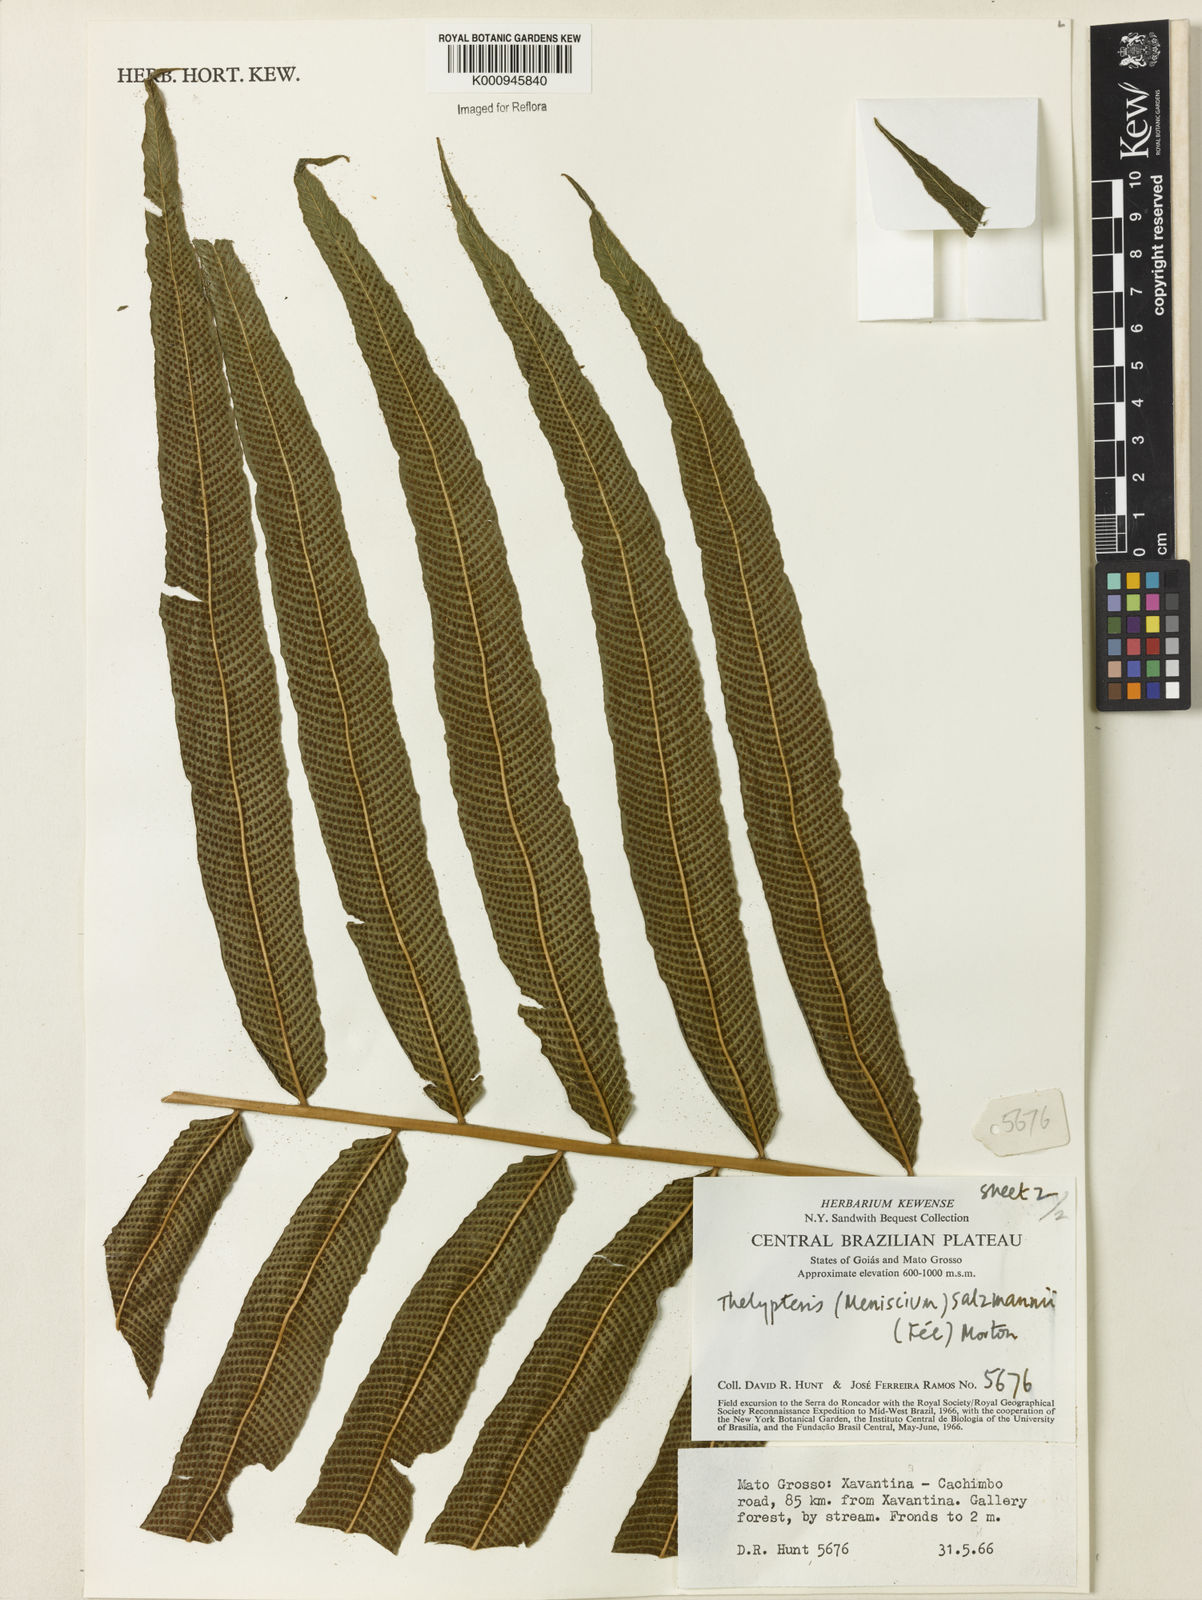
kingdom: Plantae
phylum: Tracheophyta
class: Polypodiopsida
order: Polypodiales
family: Thelypteridaceae
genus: Meniscium
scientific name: Meniscium longifolium
